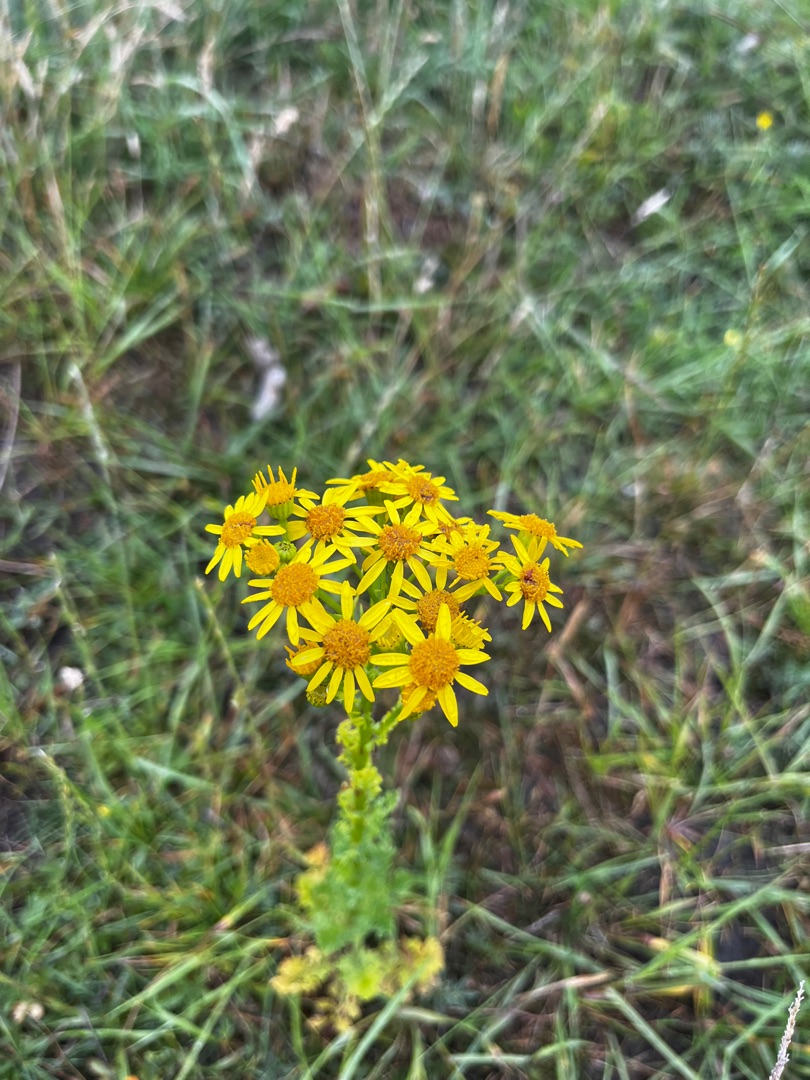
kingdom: Plantae
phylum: Tracheophyta
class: Magnoliopsida
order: Asterales
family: Asteraceae
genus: Jacobaea
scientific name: Jacobaea vulgaris
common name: Eng-brandbæger
